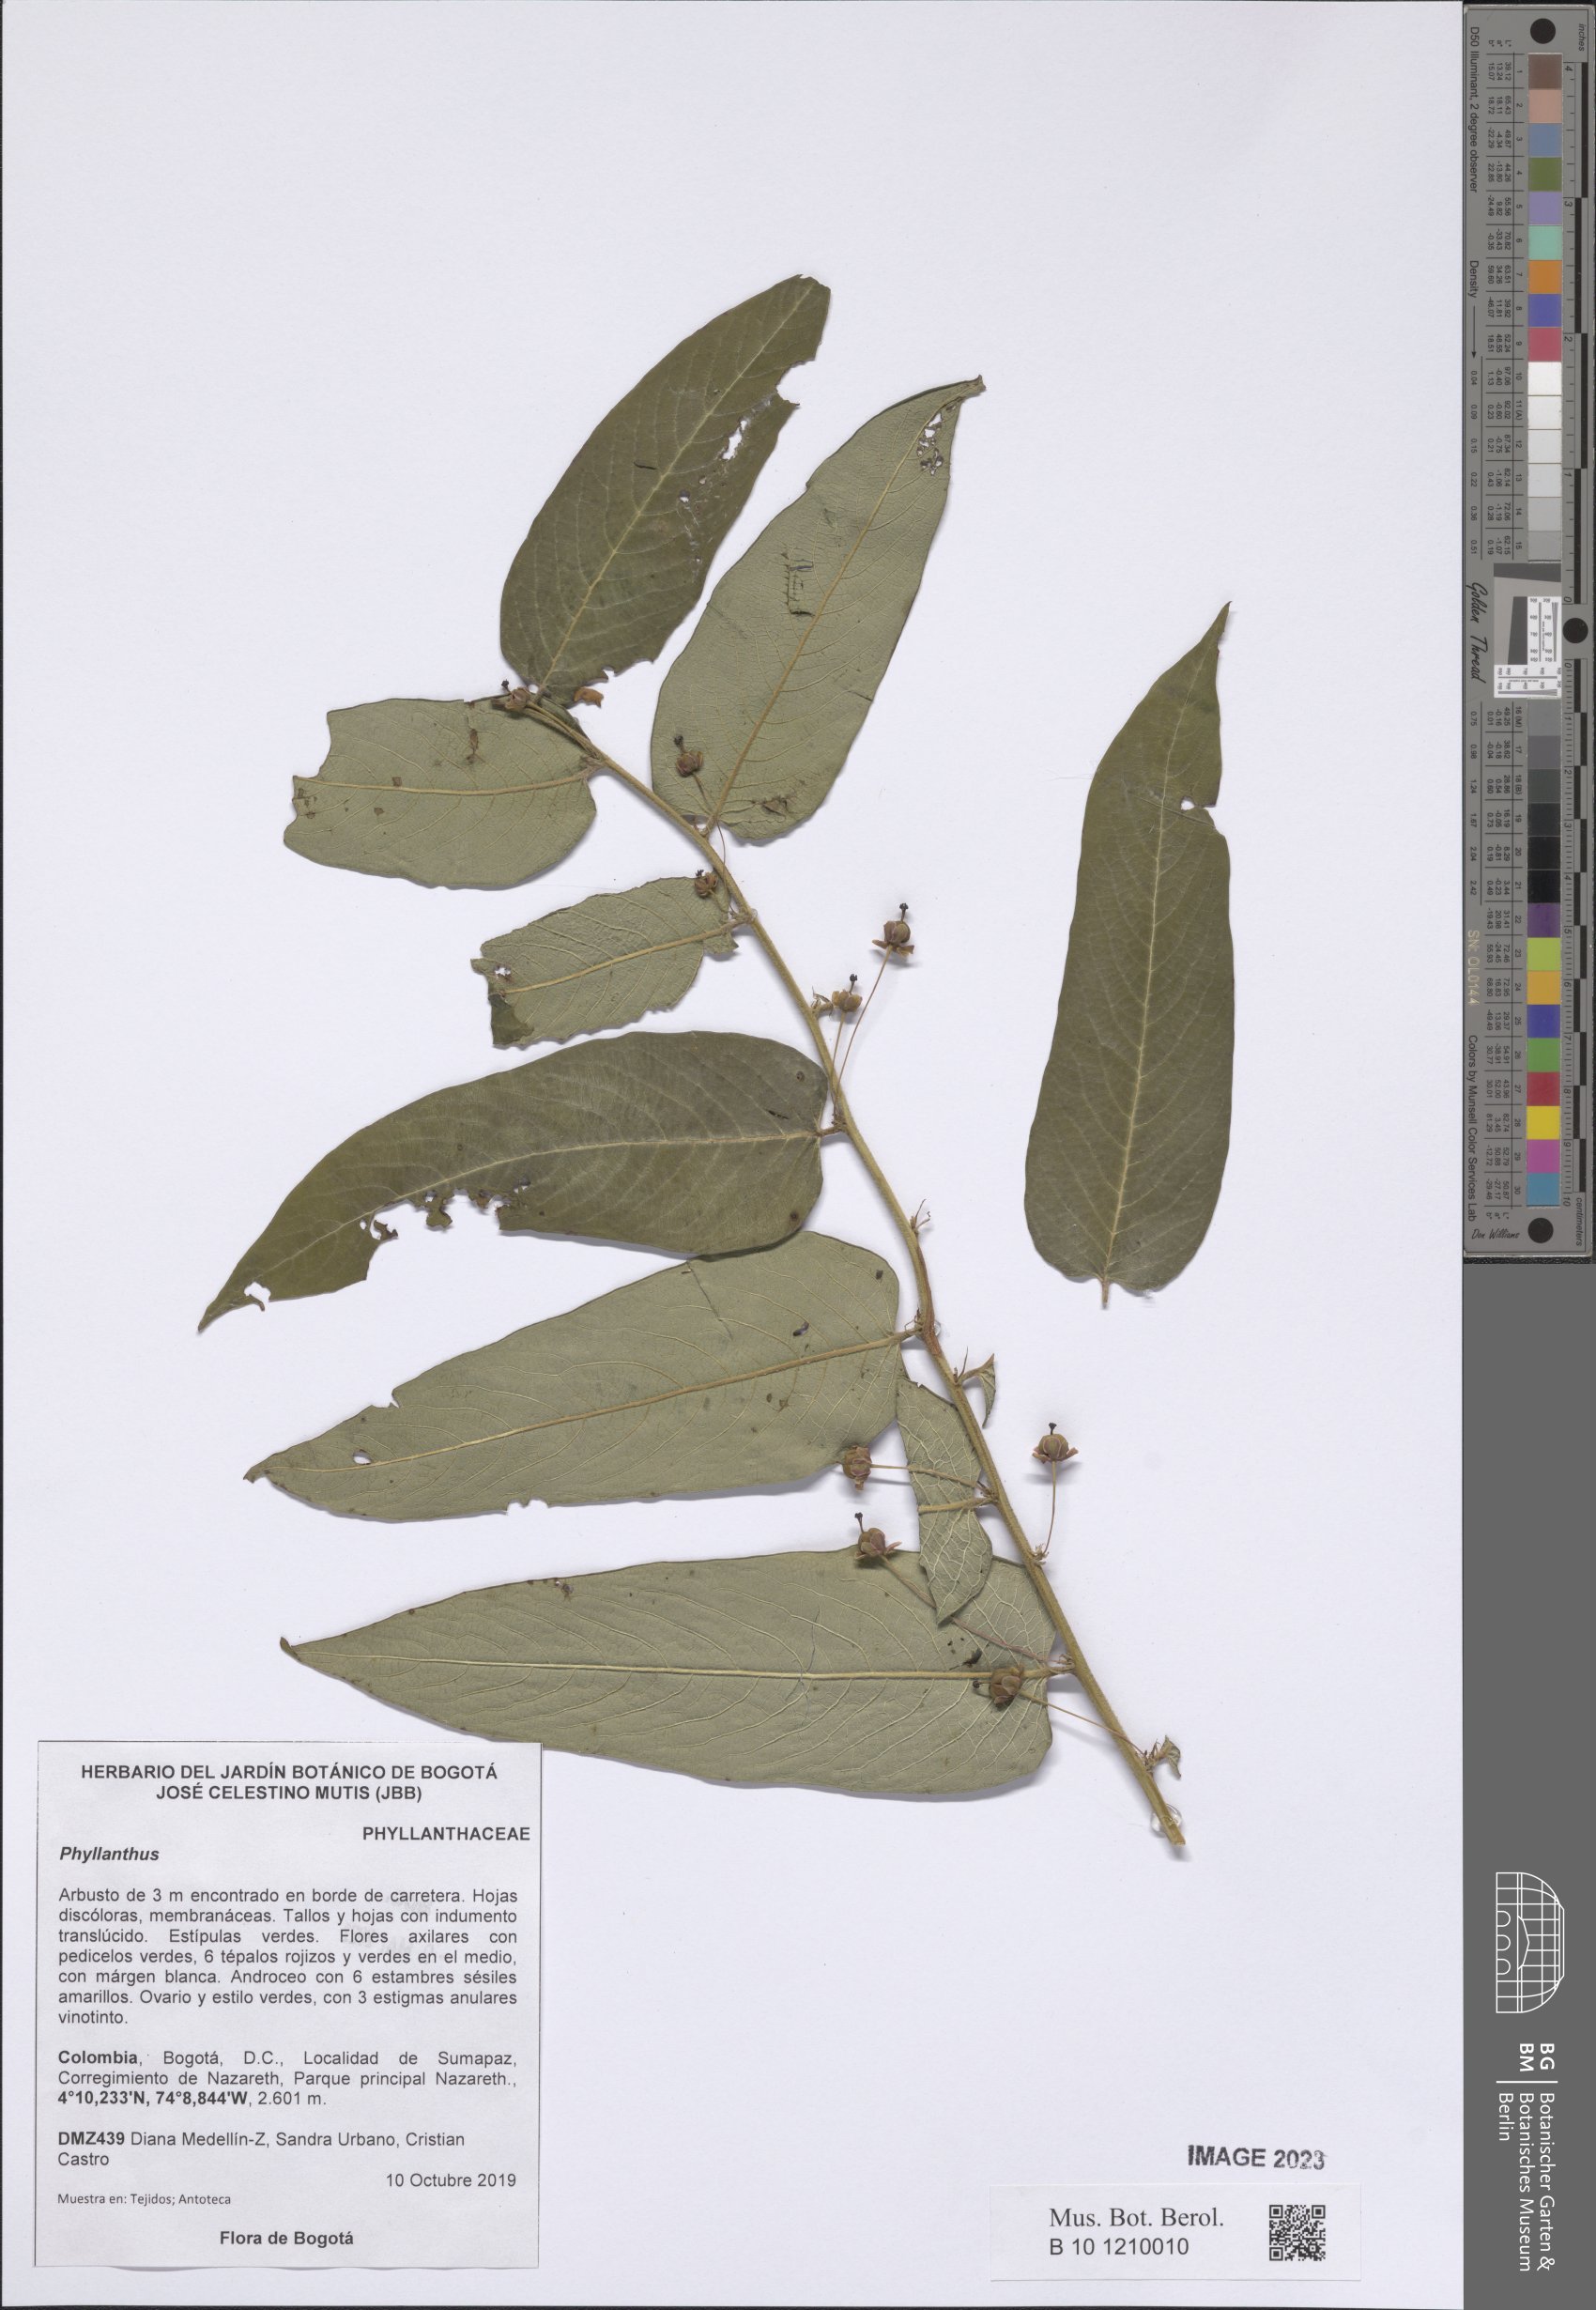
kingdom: Plantae
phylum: Tracheophyta
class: Magnoliopsida
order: Malpighiales
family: Phyllanthaceae
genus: Phyllanthus
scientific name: Phyllanthus
